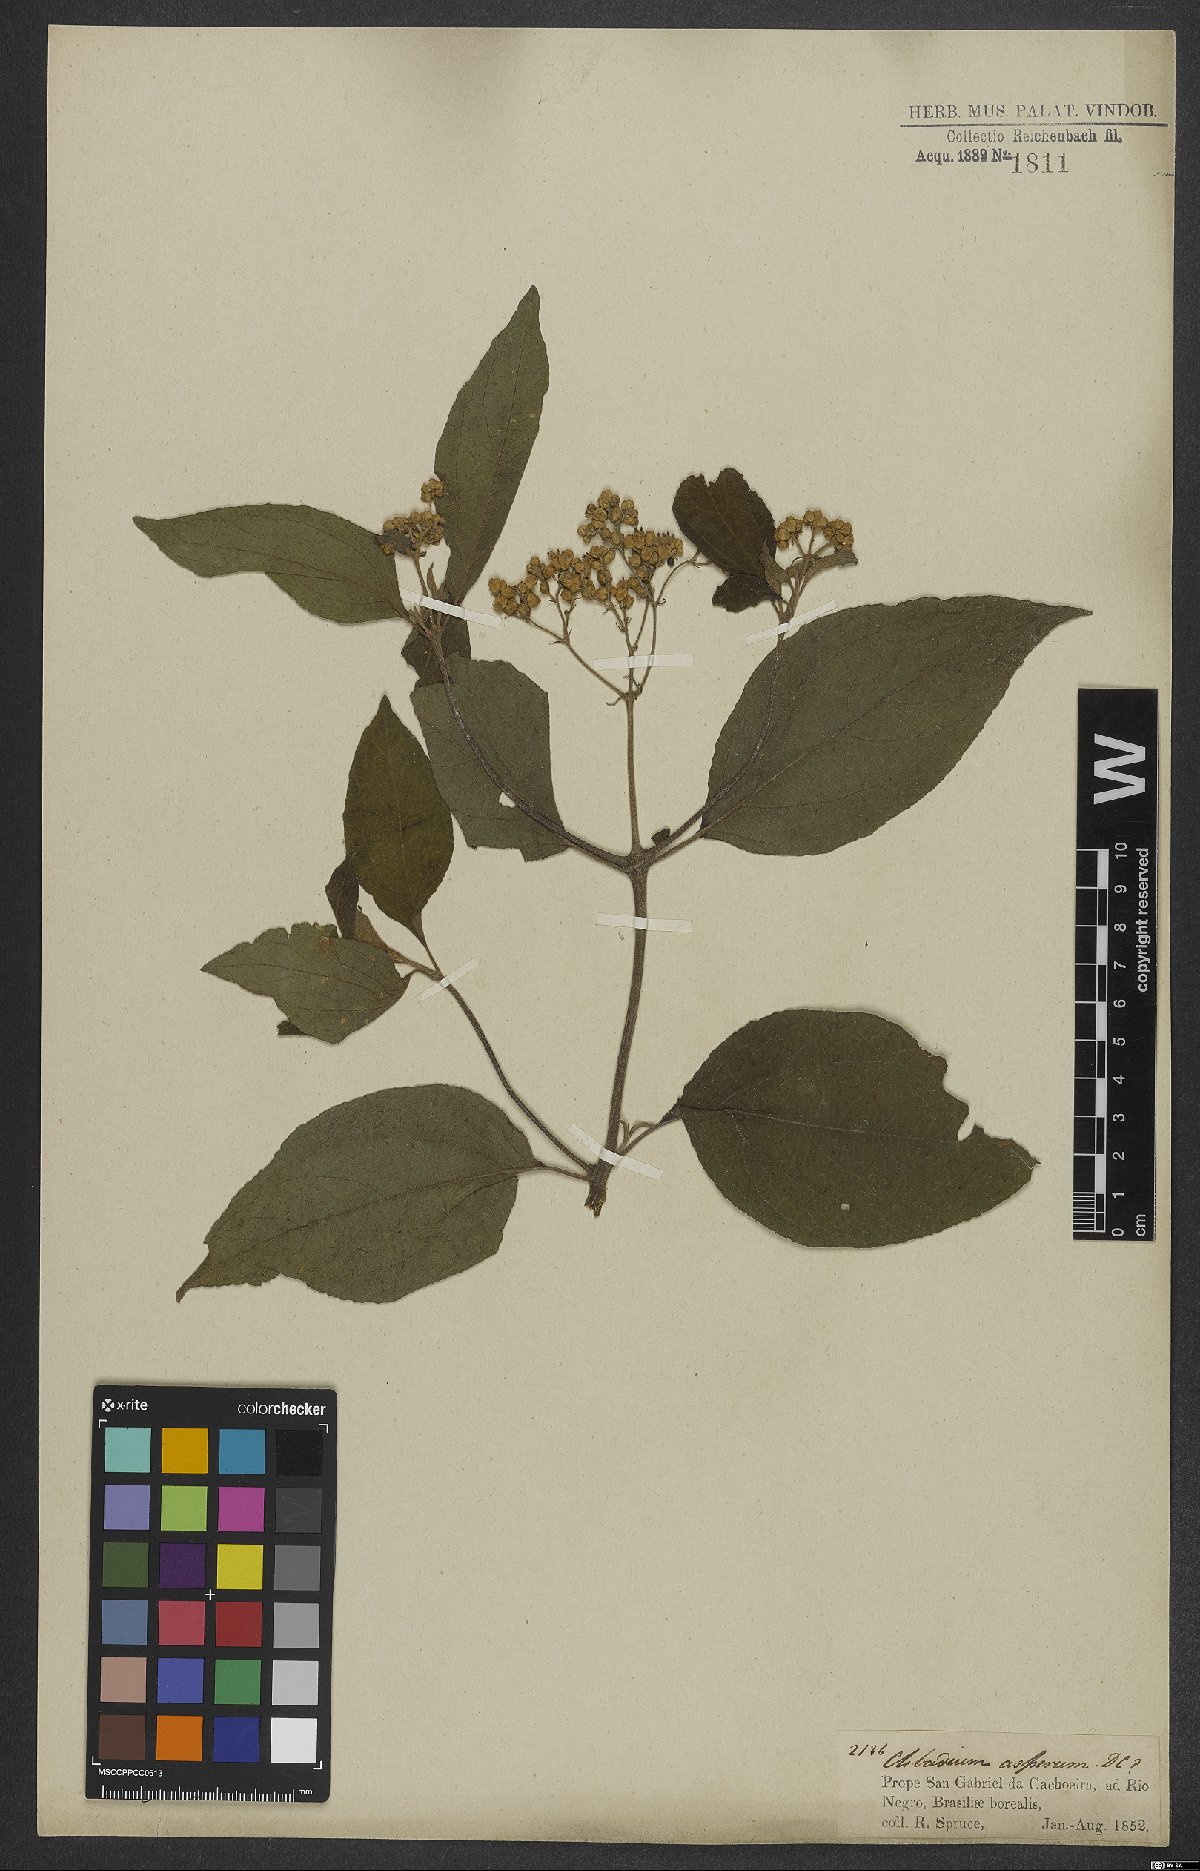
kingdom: Plantae
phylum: Tracheophyta
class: Magnoliopsida
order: Asterales
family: Asteraceae
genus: Clibadium
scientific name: Clibadium surinamense
